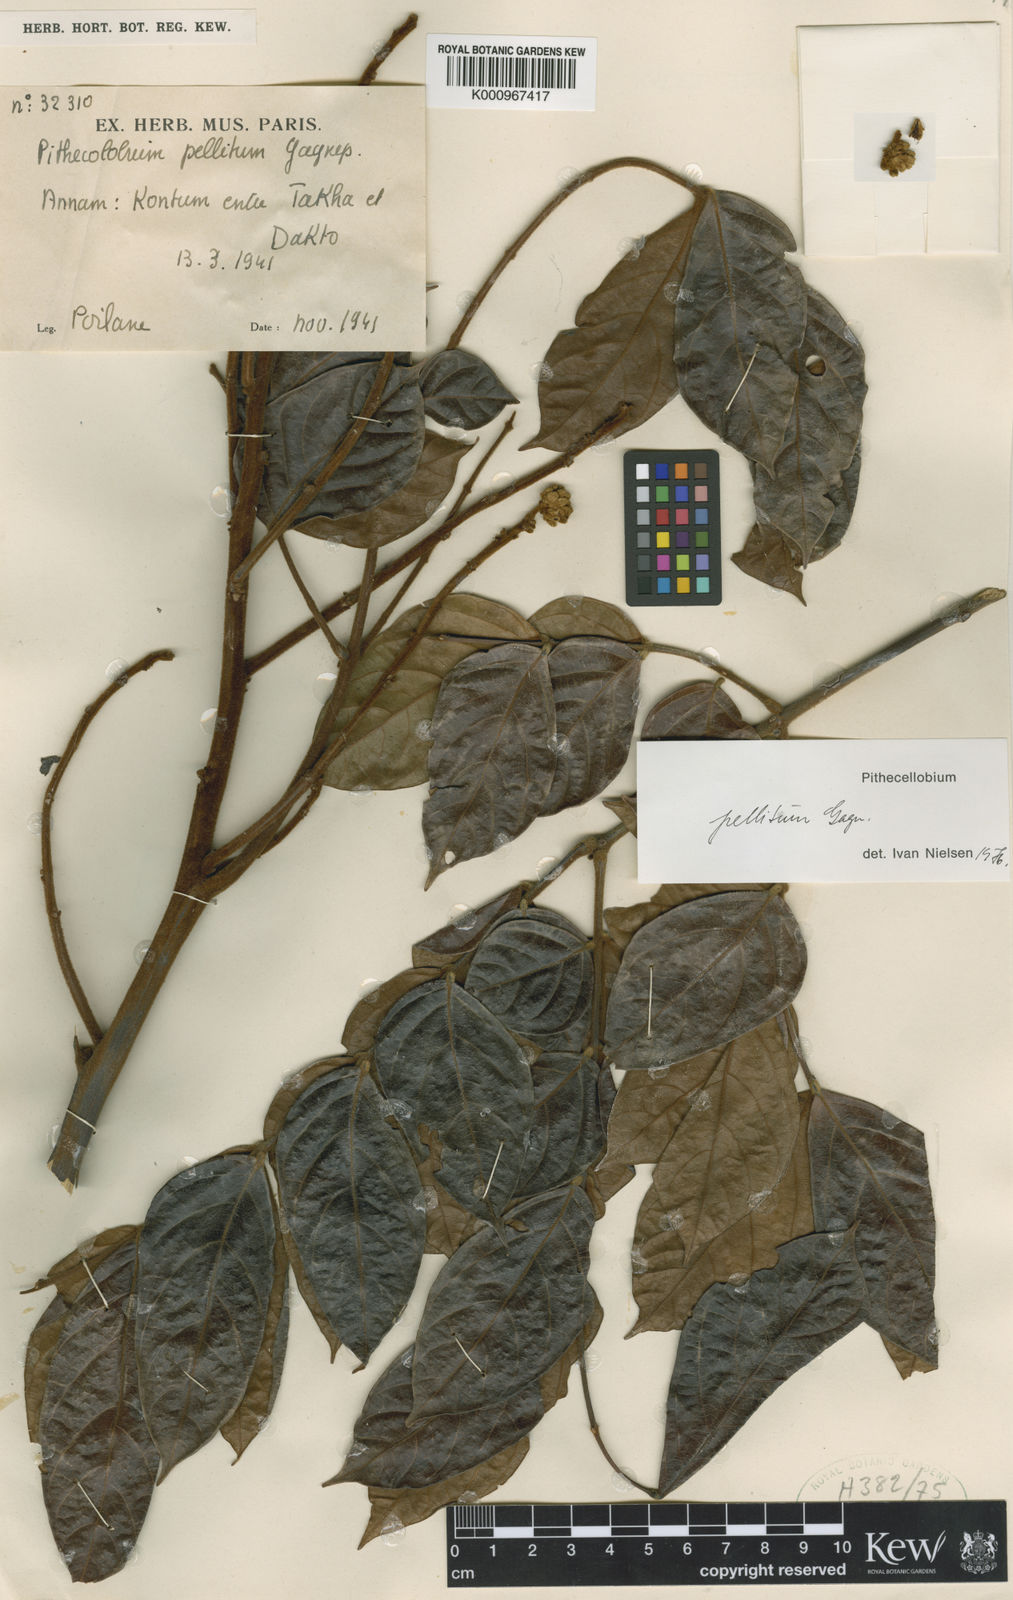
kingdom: Plantae
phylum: Tracheophyta
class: Magnoliopsida
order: Fabales
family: Fabaceae
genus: Archidendron
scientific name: Archidendron pellitum
